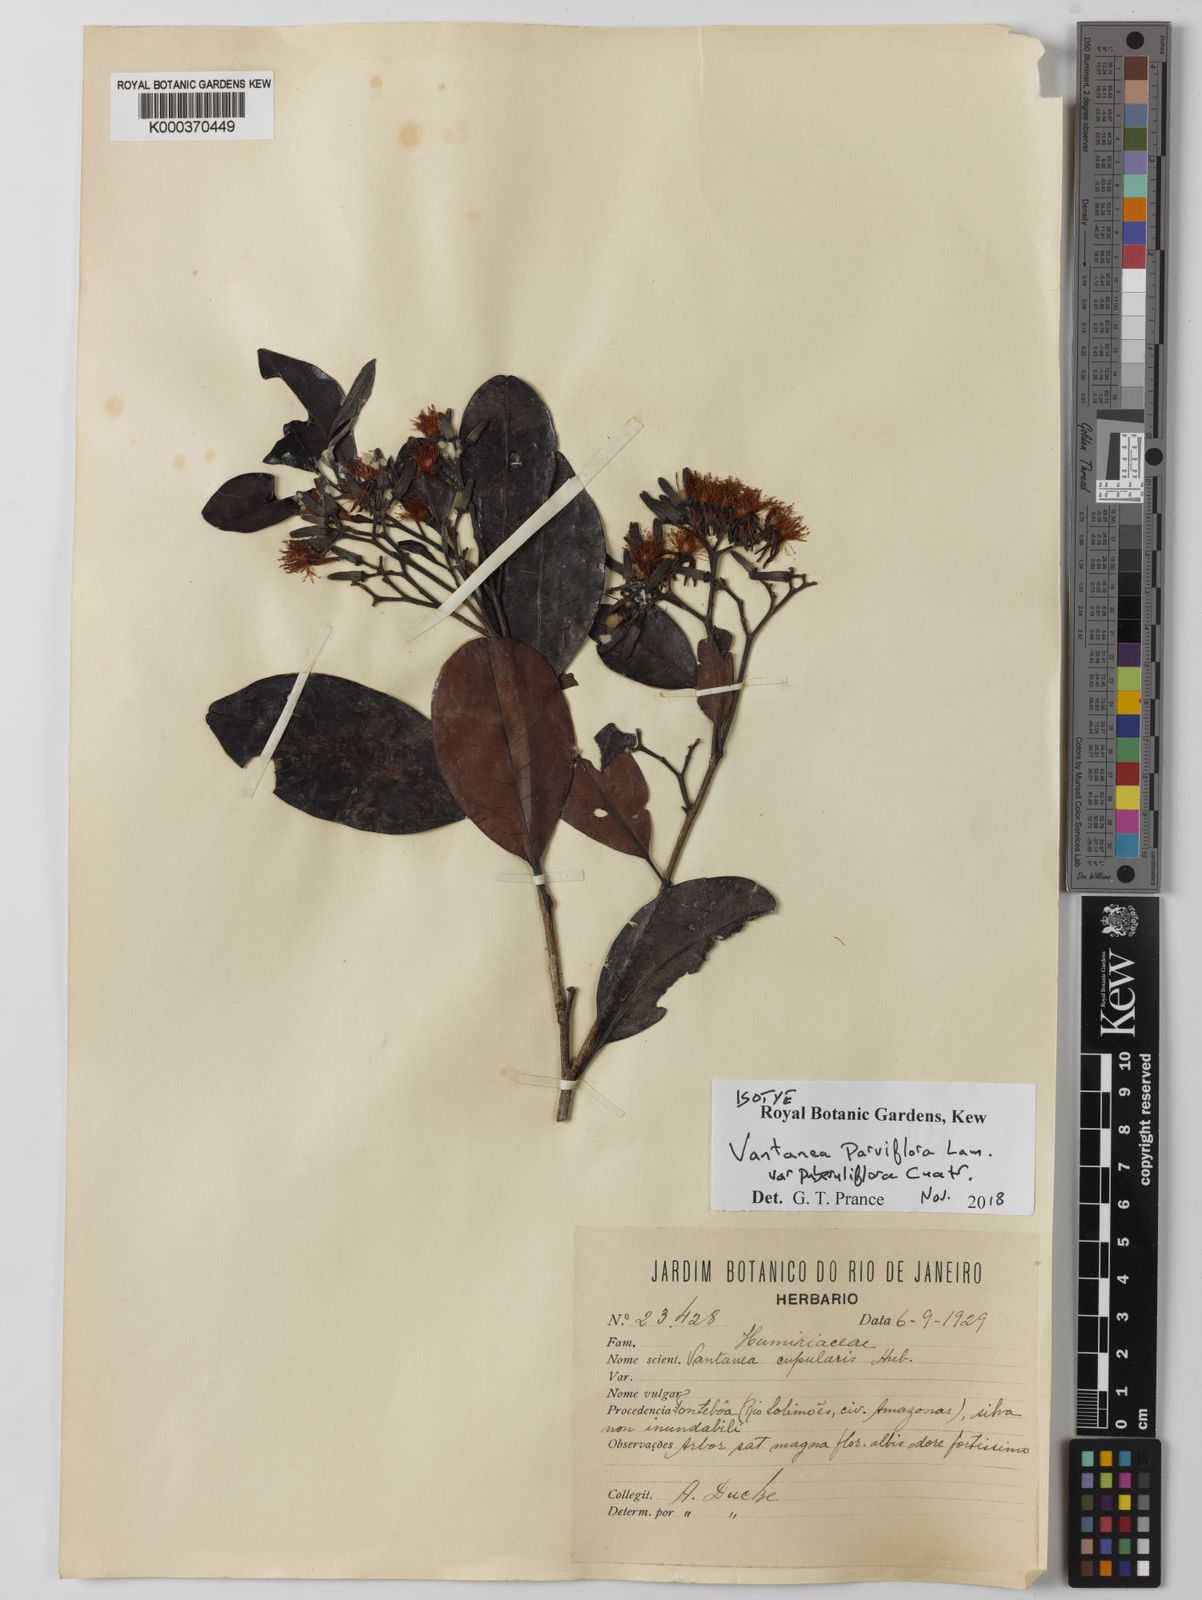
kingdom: Plantae
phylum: Tracheophyta
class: Magnoliopsida
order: Malpighiales
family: Humiriaceae
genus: Vantanea
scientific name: Vantanea parviflora
